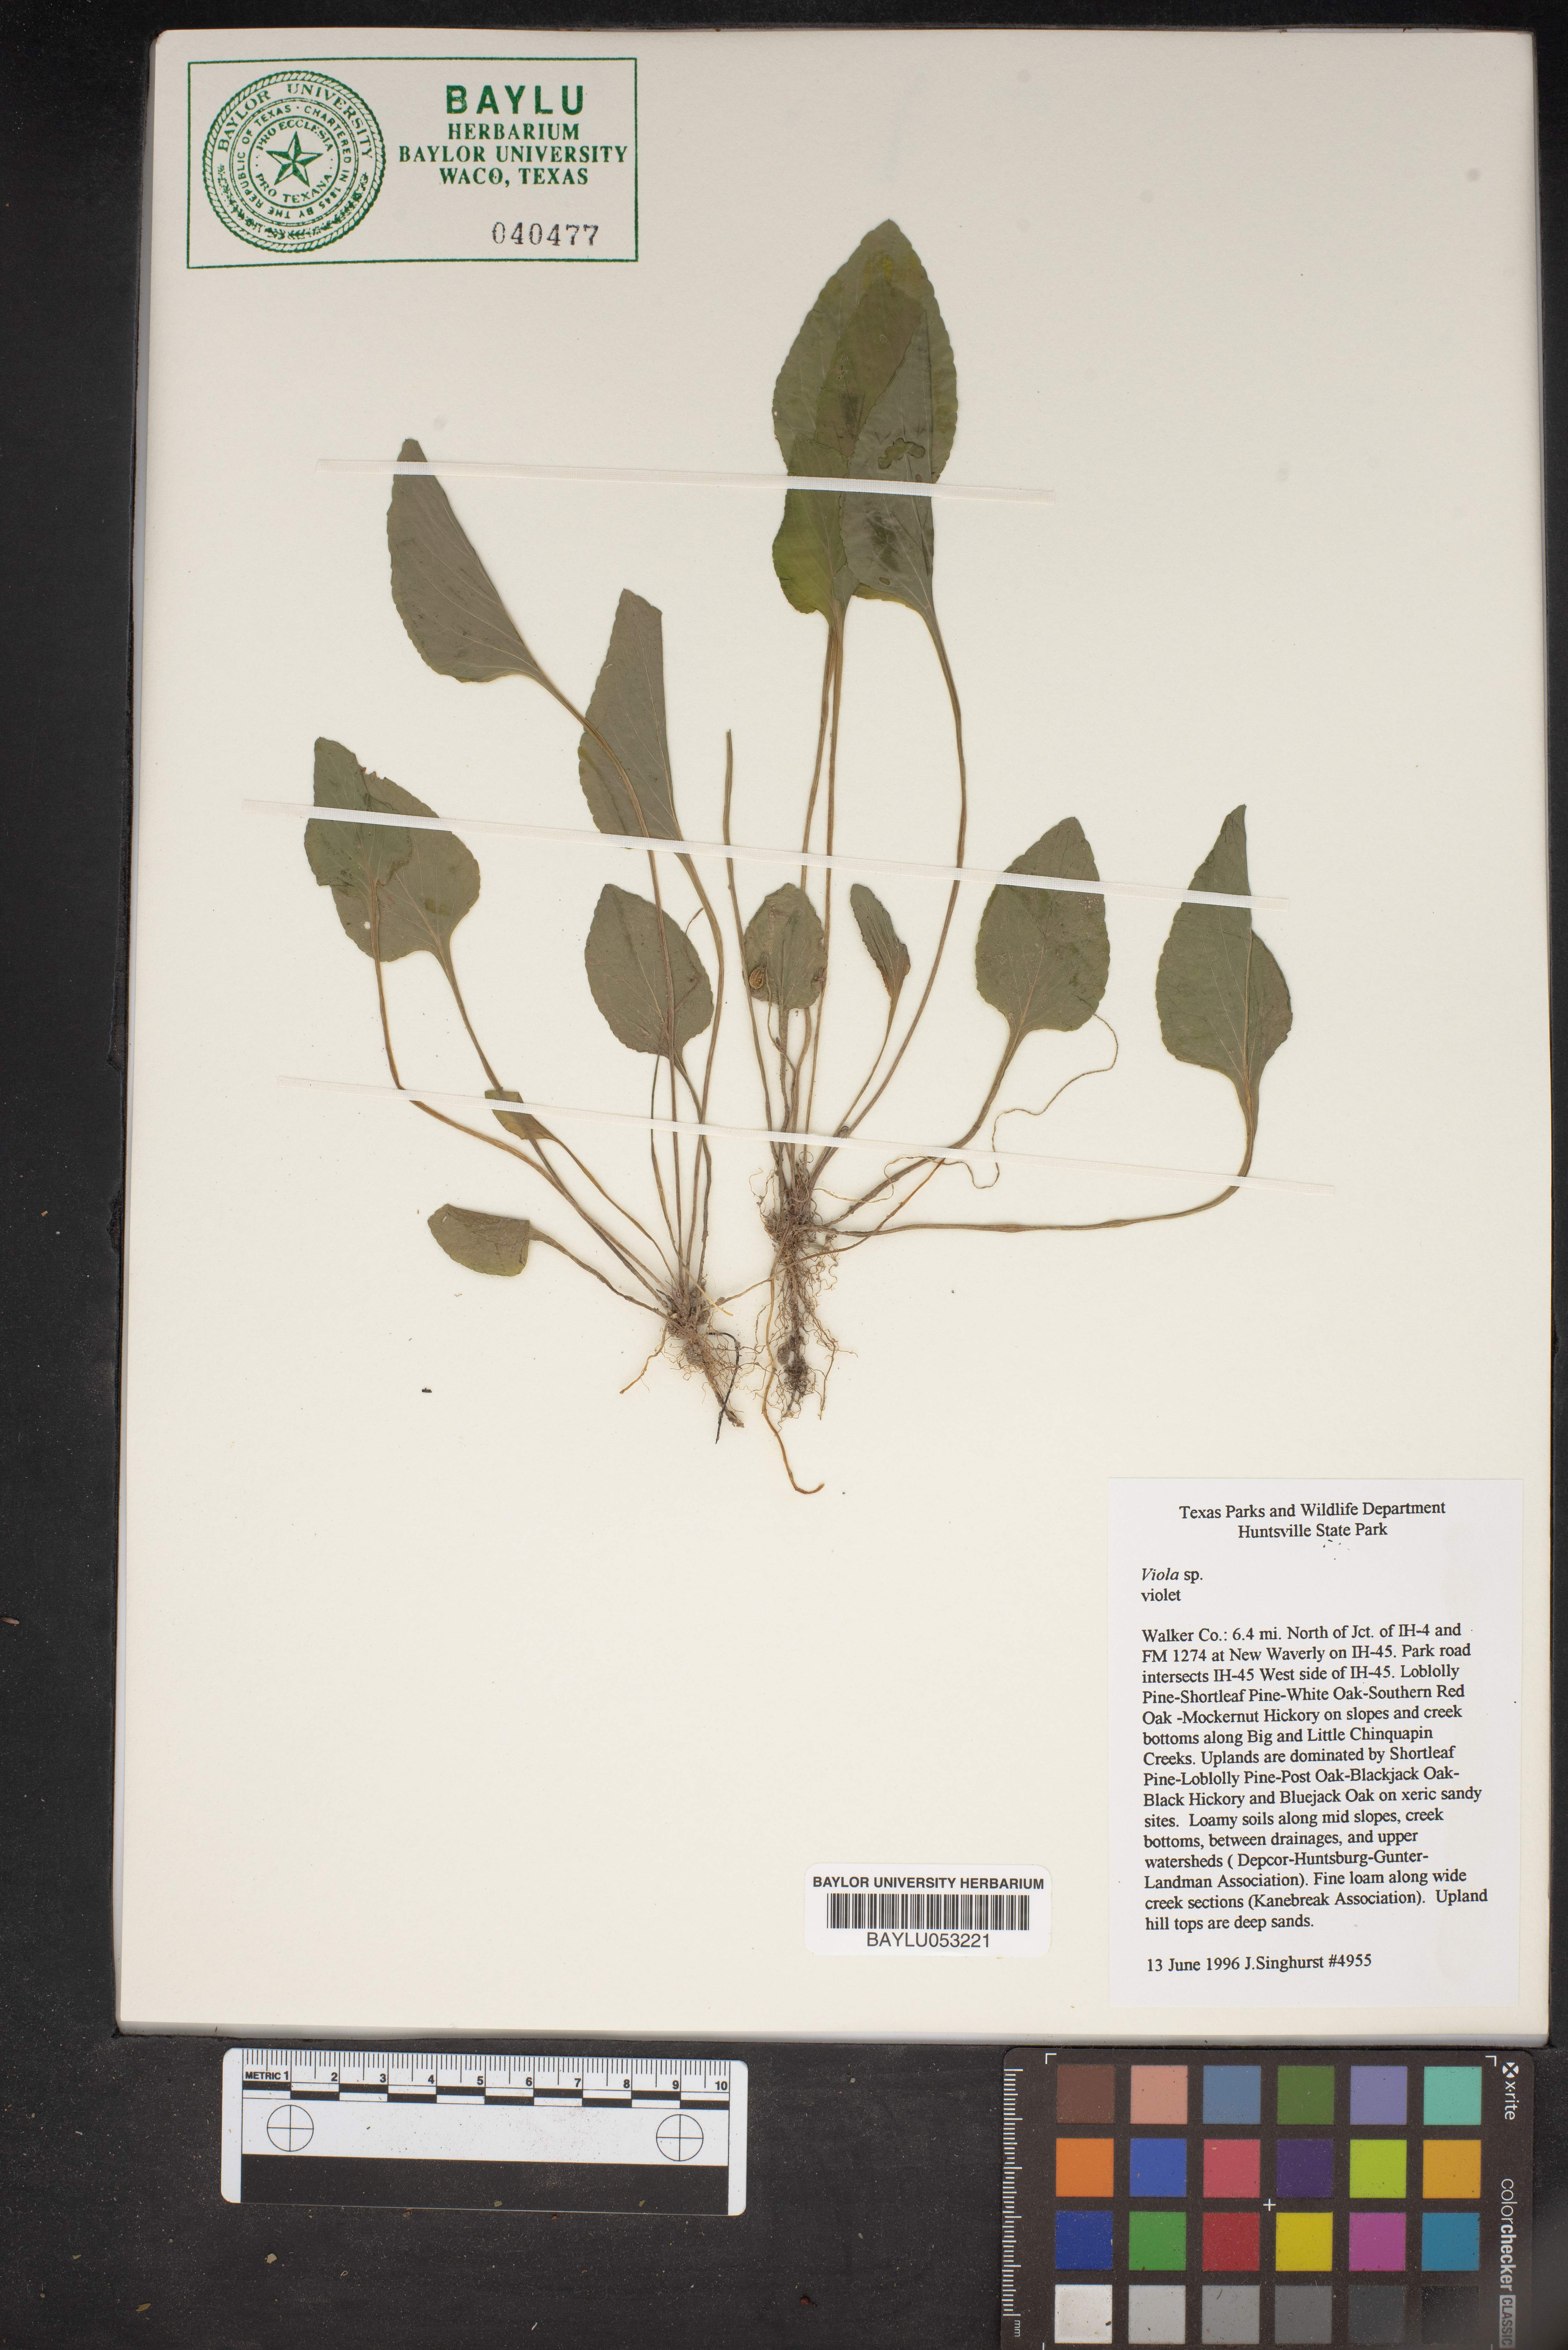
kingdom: Plantae
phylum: Tracheophyta
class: Magnoliopsida
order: Malpighiales
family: Violaceae
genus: Viola
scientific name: Viola
